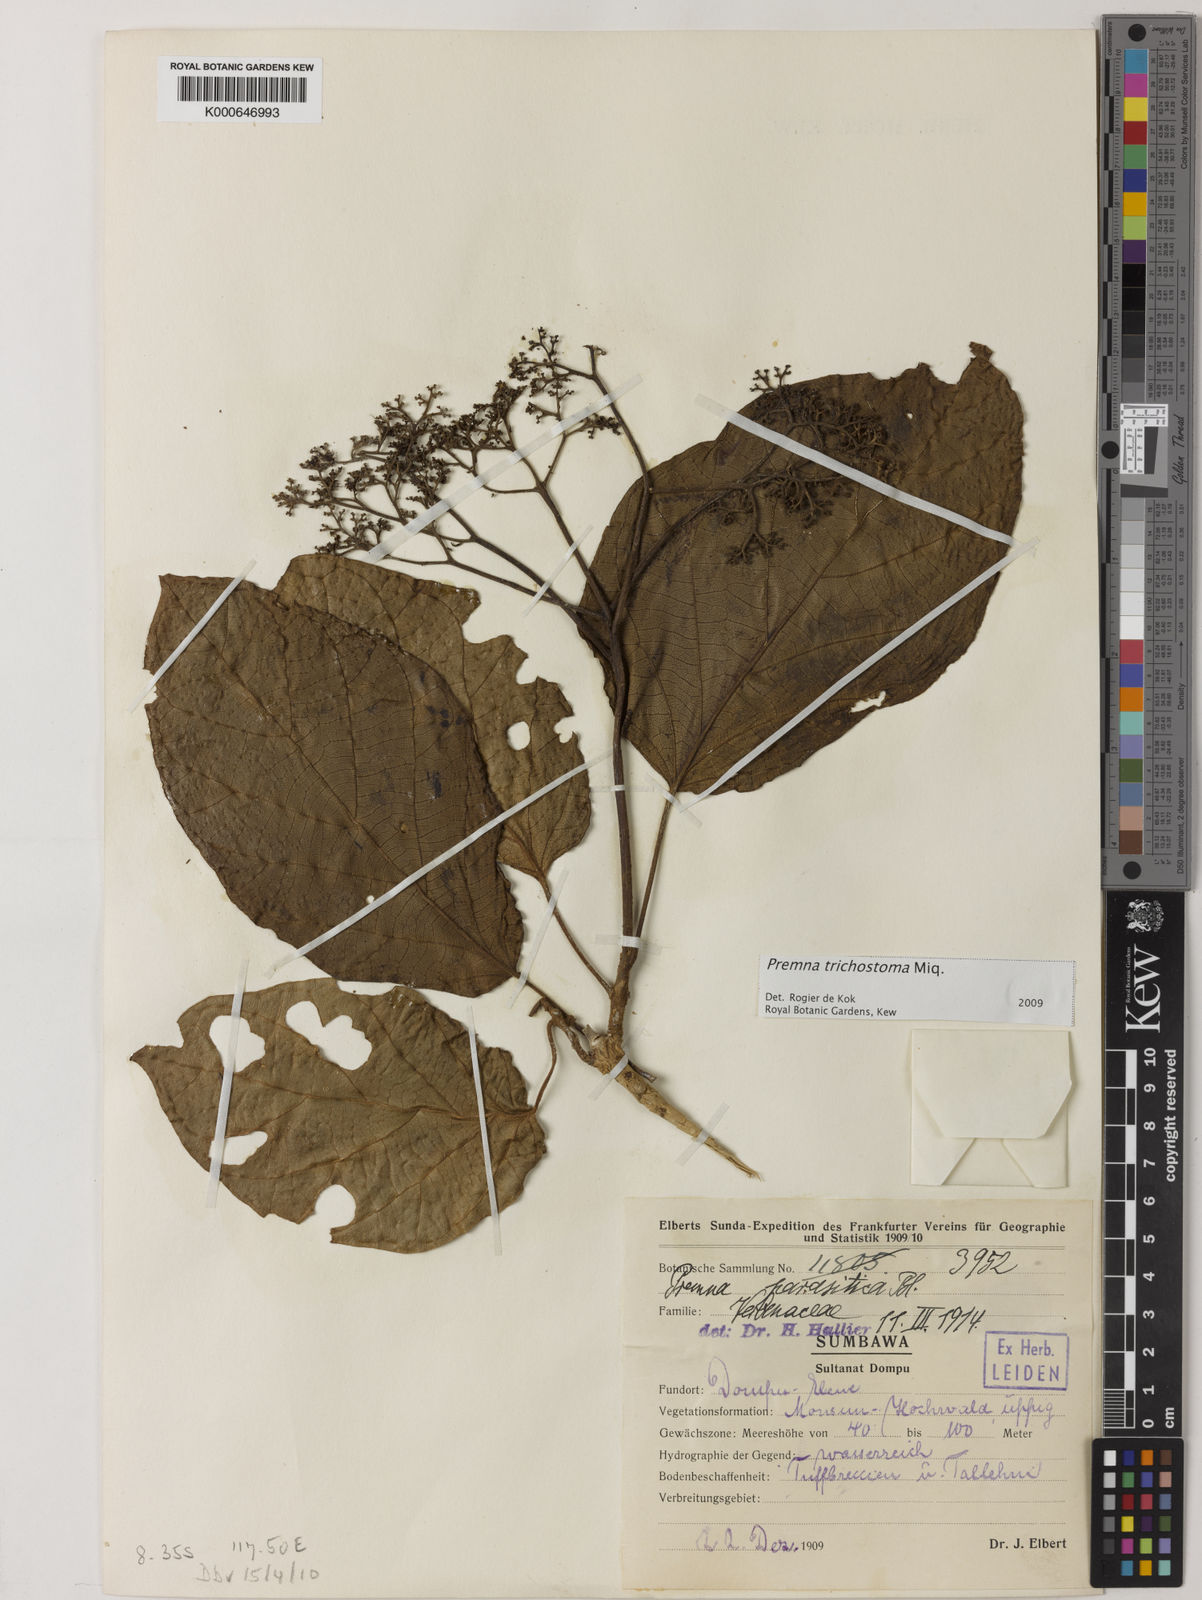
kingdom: Plantae
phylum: Tracheophyta
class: Magnoliopsida
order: Lamiales
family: Lamiaceae
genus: Premna
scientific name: Premna trichostoma
